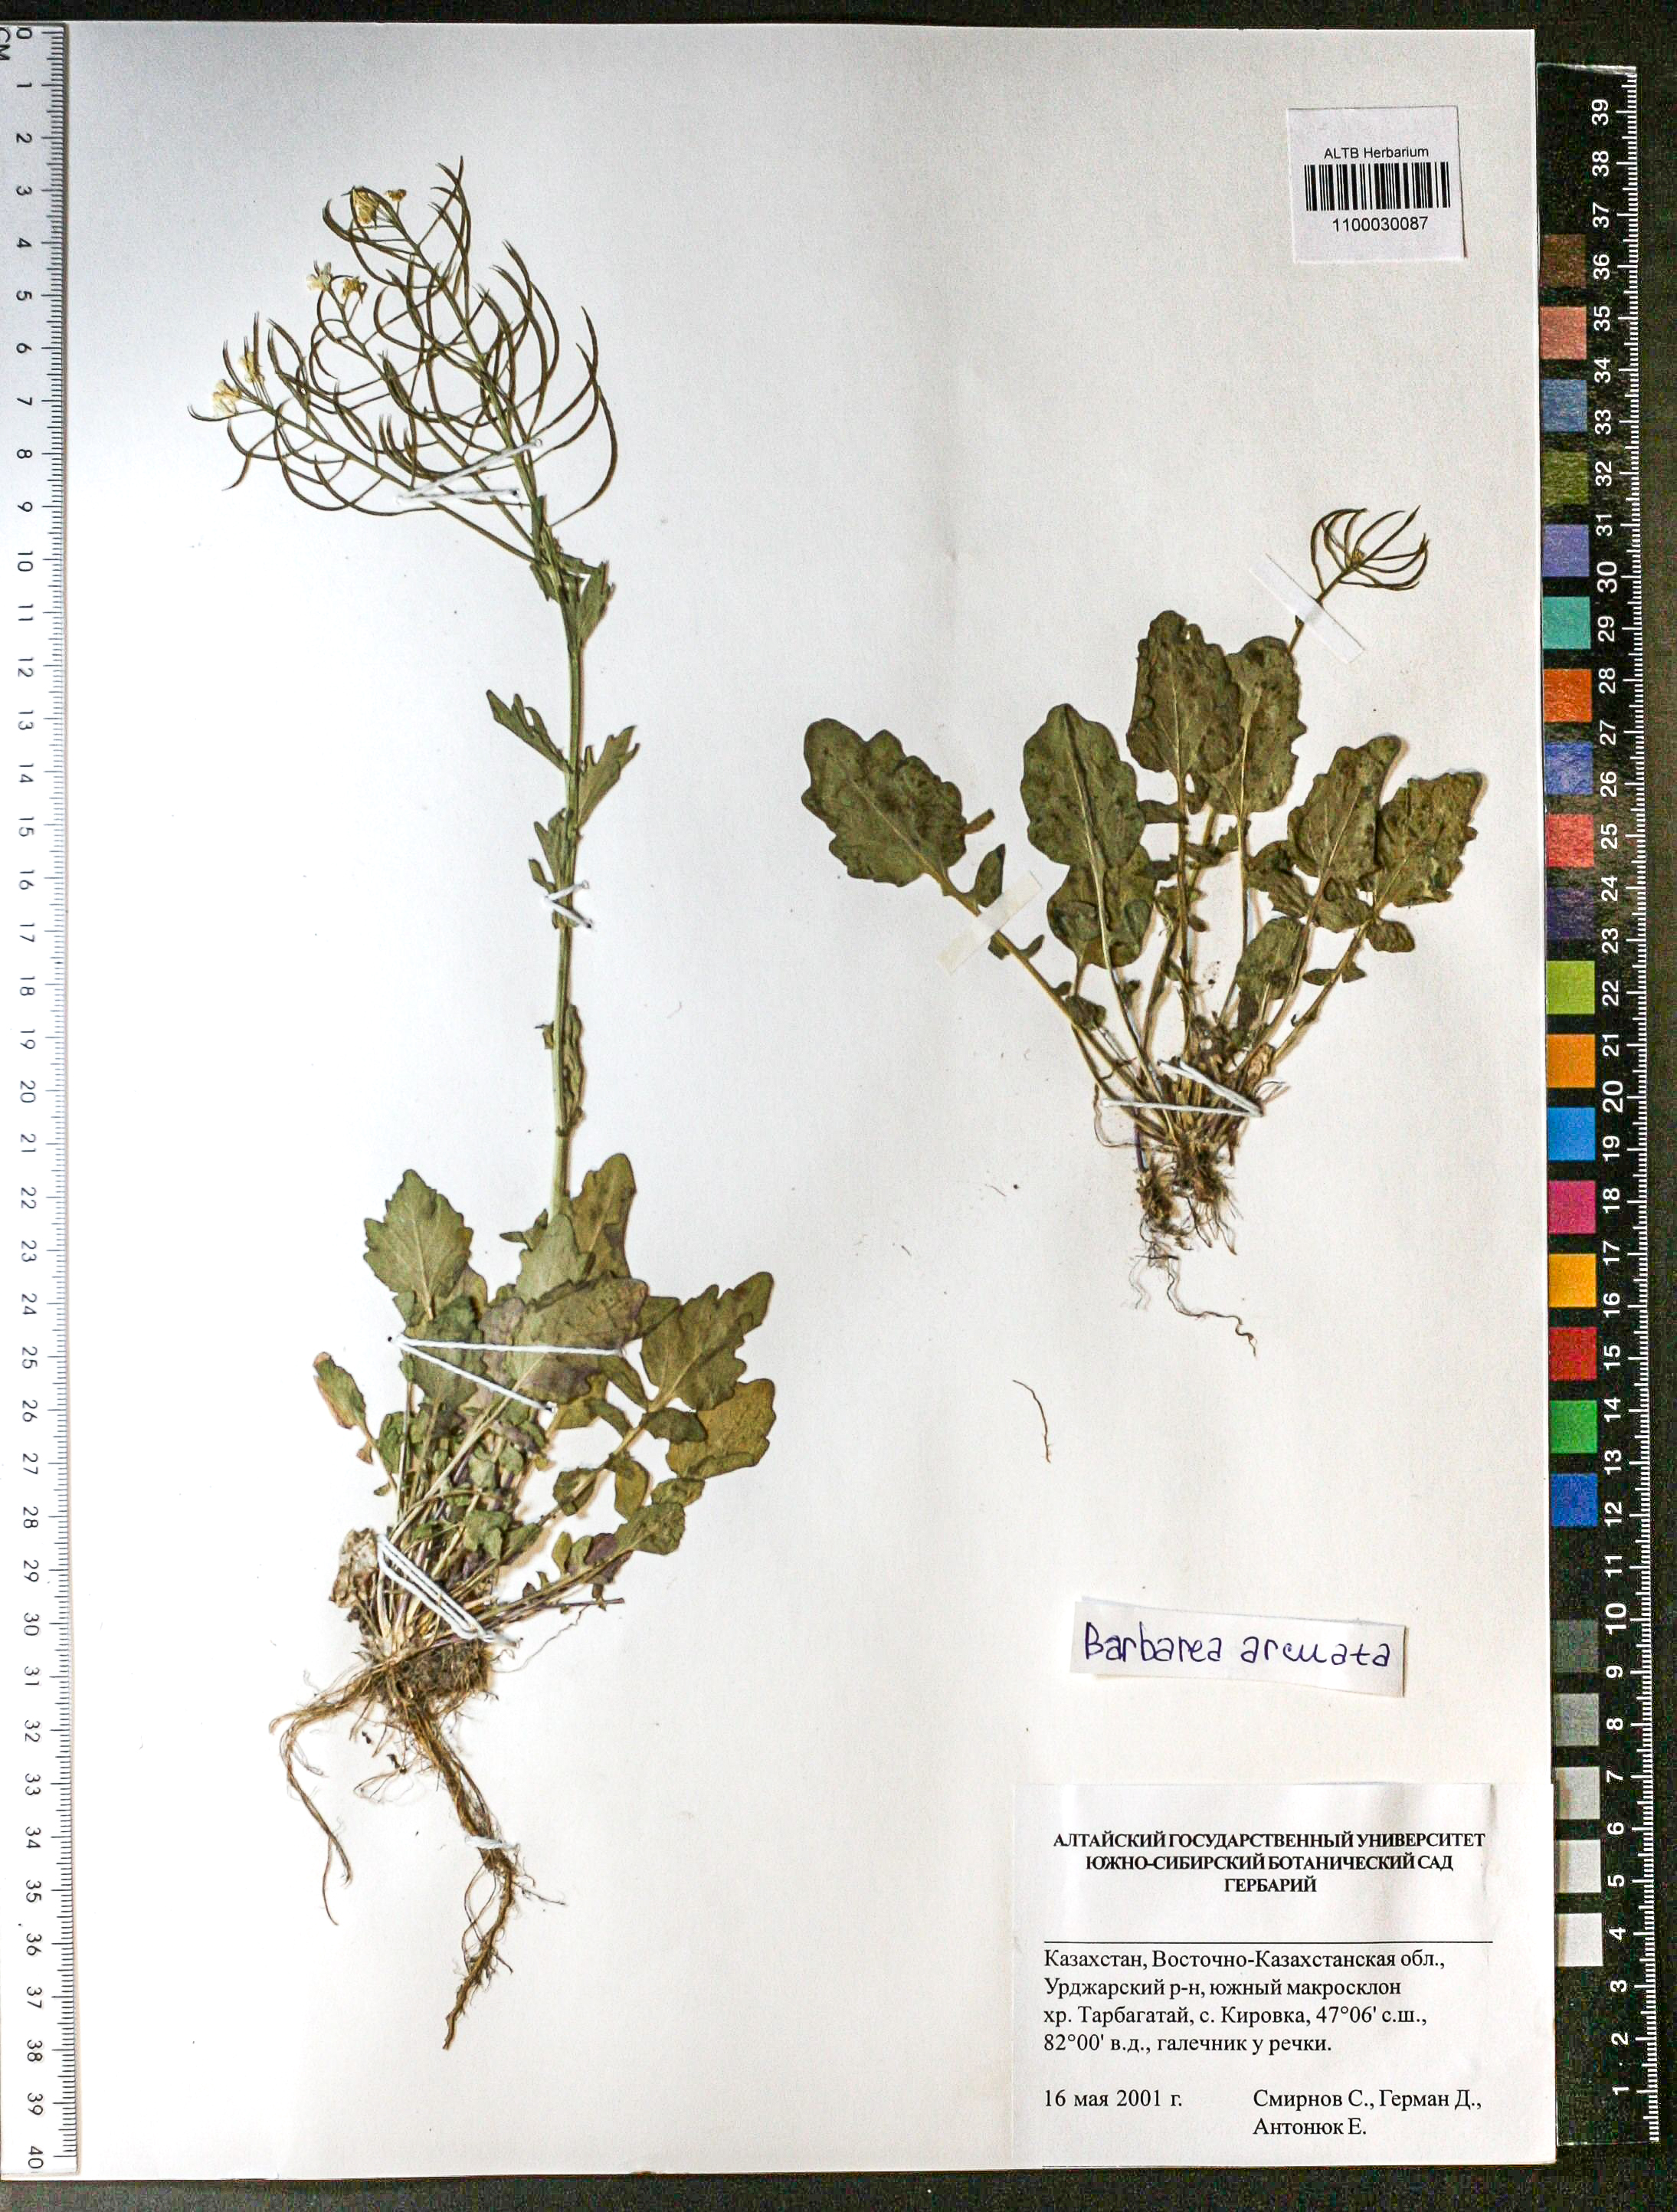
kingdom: Plantae
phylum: Tracheophyta
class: Magnoliopsida
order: Brassicales
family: Brassicaceae
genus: Barbarea
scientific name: Barbarea vulgaris
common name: Cressy-greens
